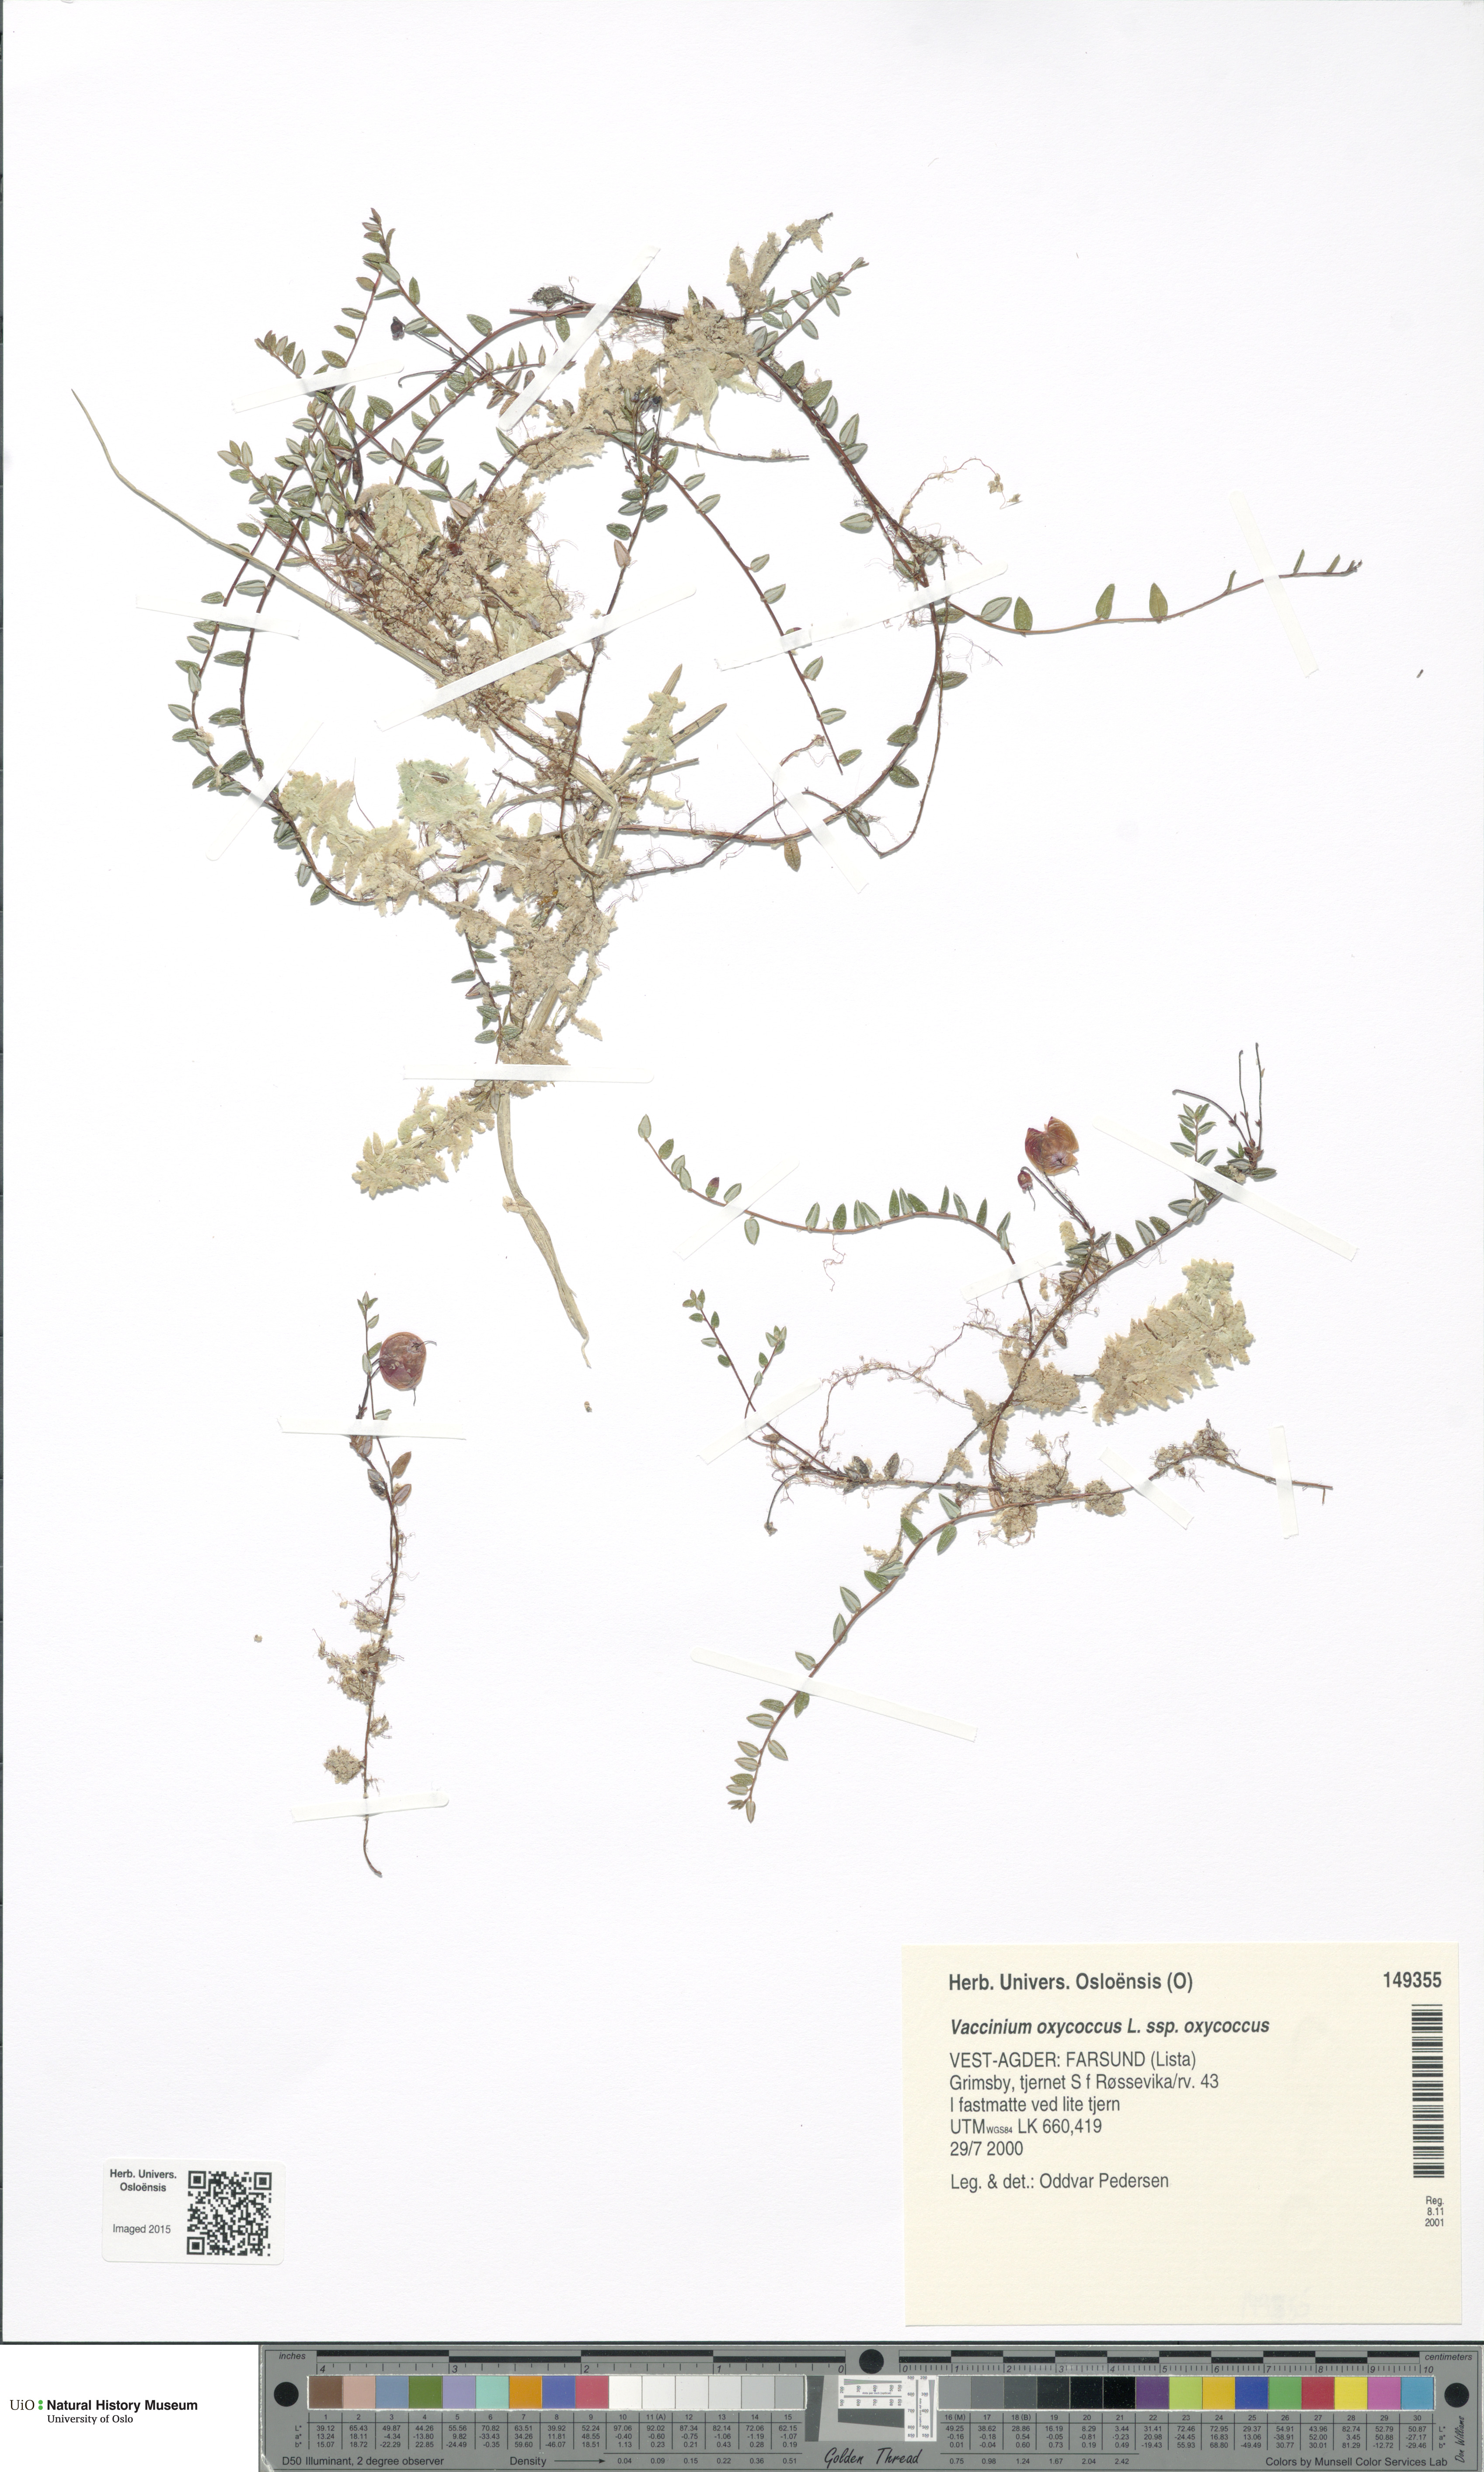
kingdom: Plantae
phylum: Tracheophyta
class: Magnoliopsida
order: Ericales
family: Ericaceae
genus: Vaccinium
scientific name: Vaccinium oxycoccos
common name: Cranberry
